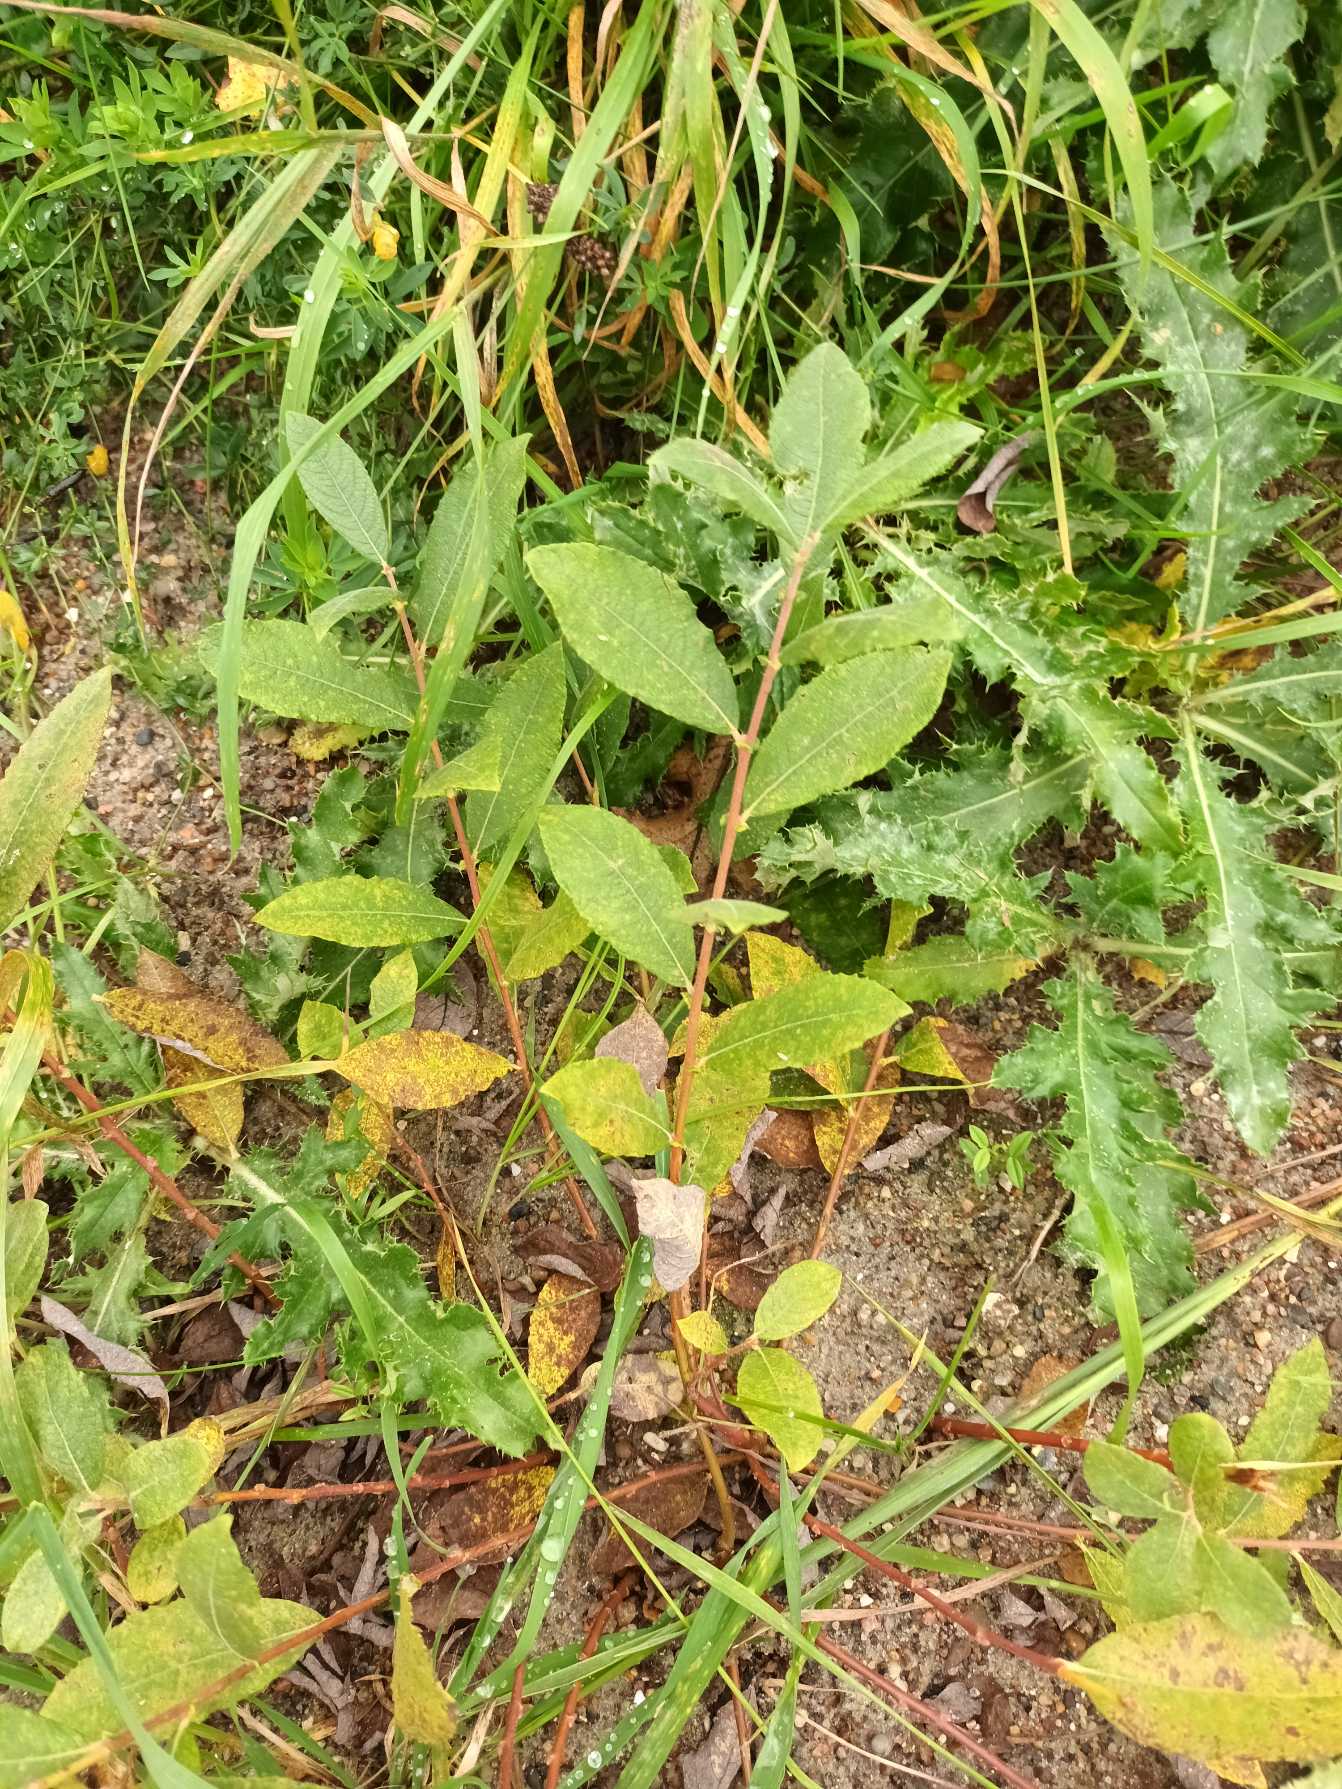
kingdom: Plantae
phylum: Tracheophyta
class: Magnoliopsida
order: Malpighiales
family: Salicaceae
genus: Salix
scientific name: Salix cinerea
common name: Grå-pil
